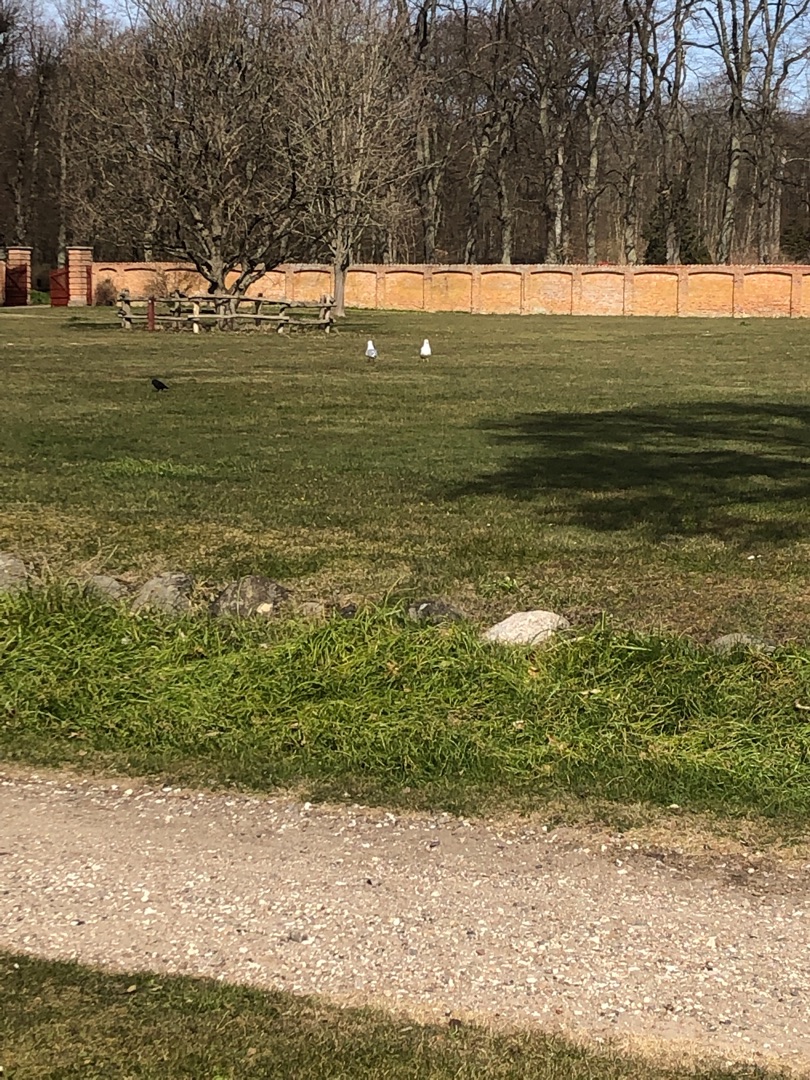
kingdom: Animalia
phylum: Chordata
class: Aves
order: Charadriiformes
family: Laridae
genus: Larus
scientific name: Larus canus
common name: Stormmåge
